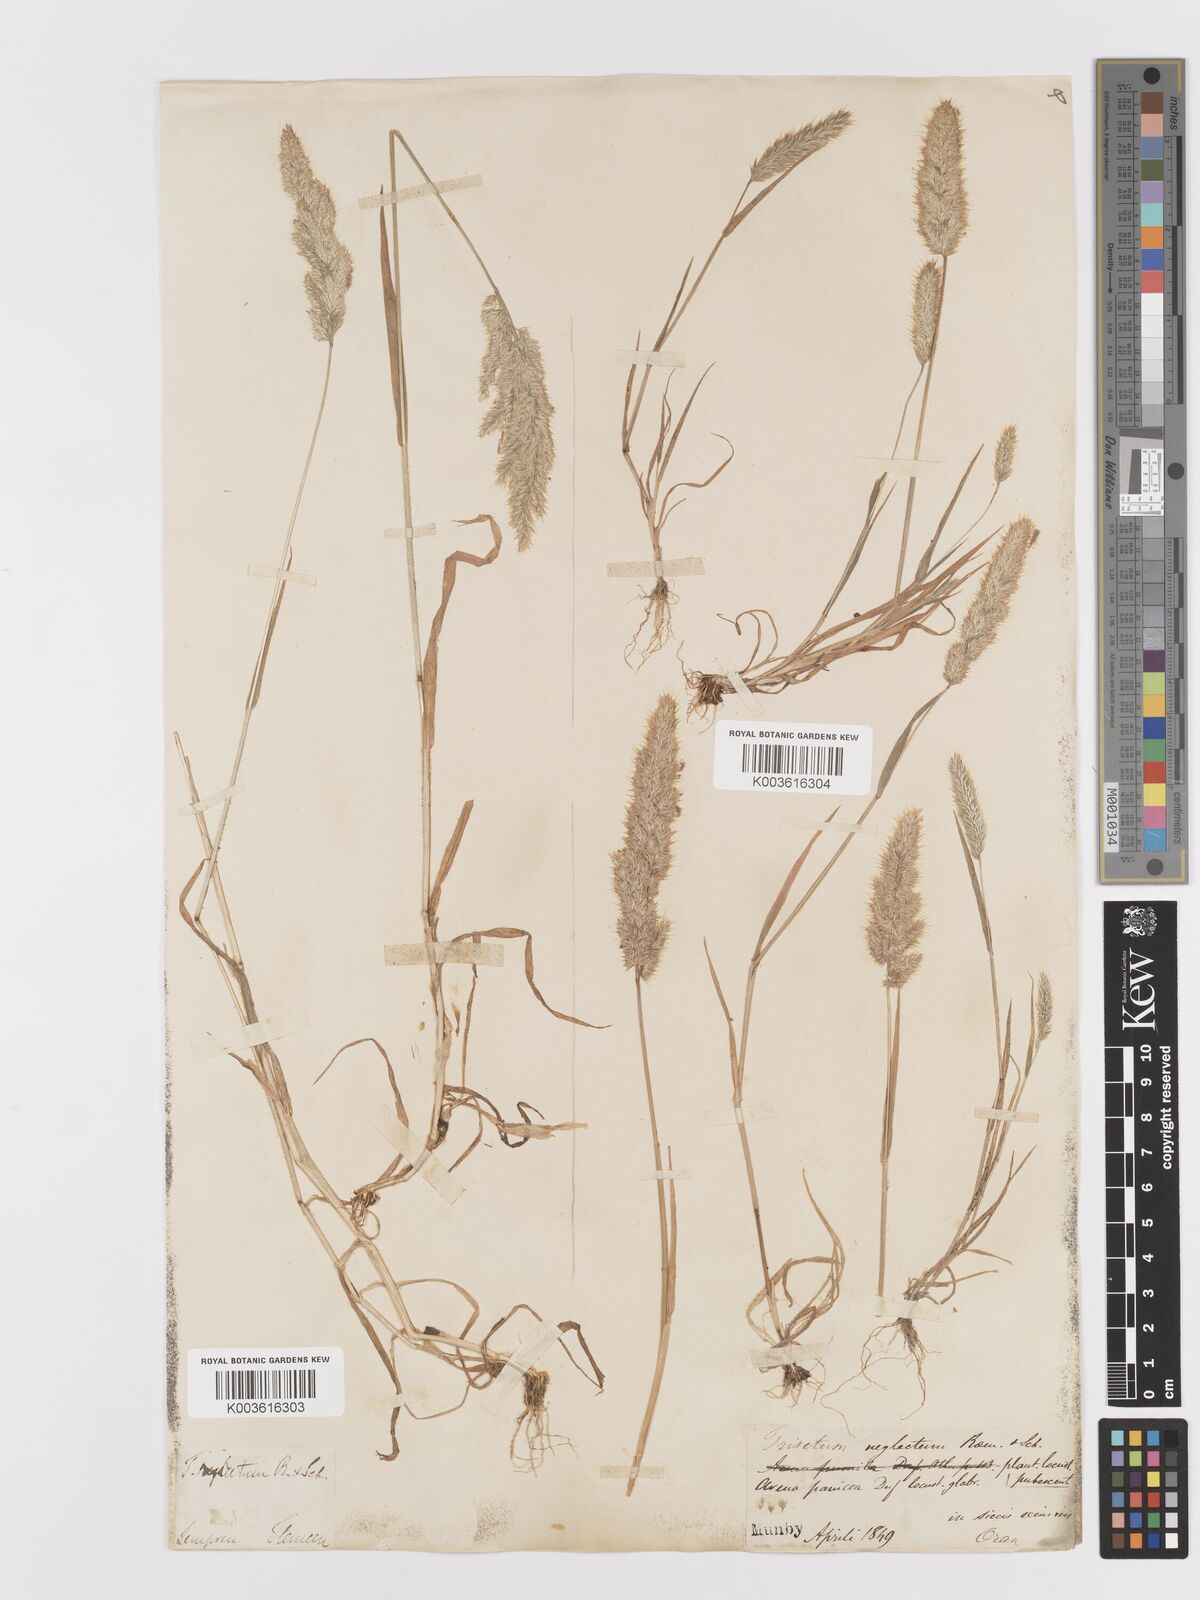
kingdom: Plantae
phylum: Tracheophyta
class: Liliopsida
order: Poales
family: Poaceae
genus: Trisetaria
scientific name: Trisetaria panicea
